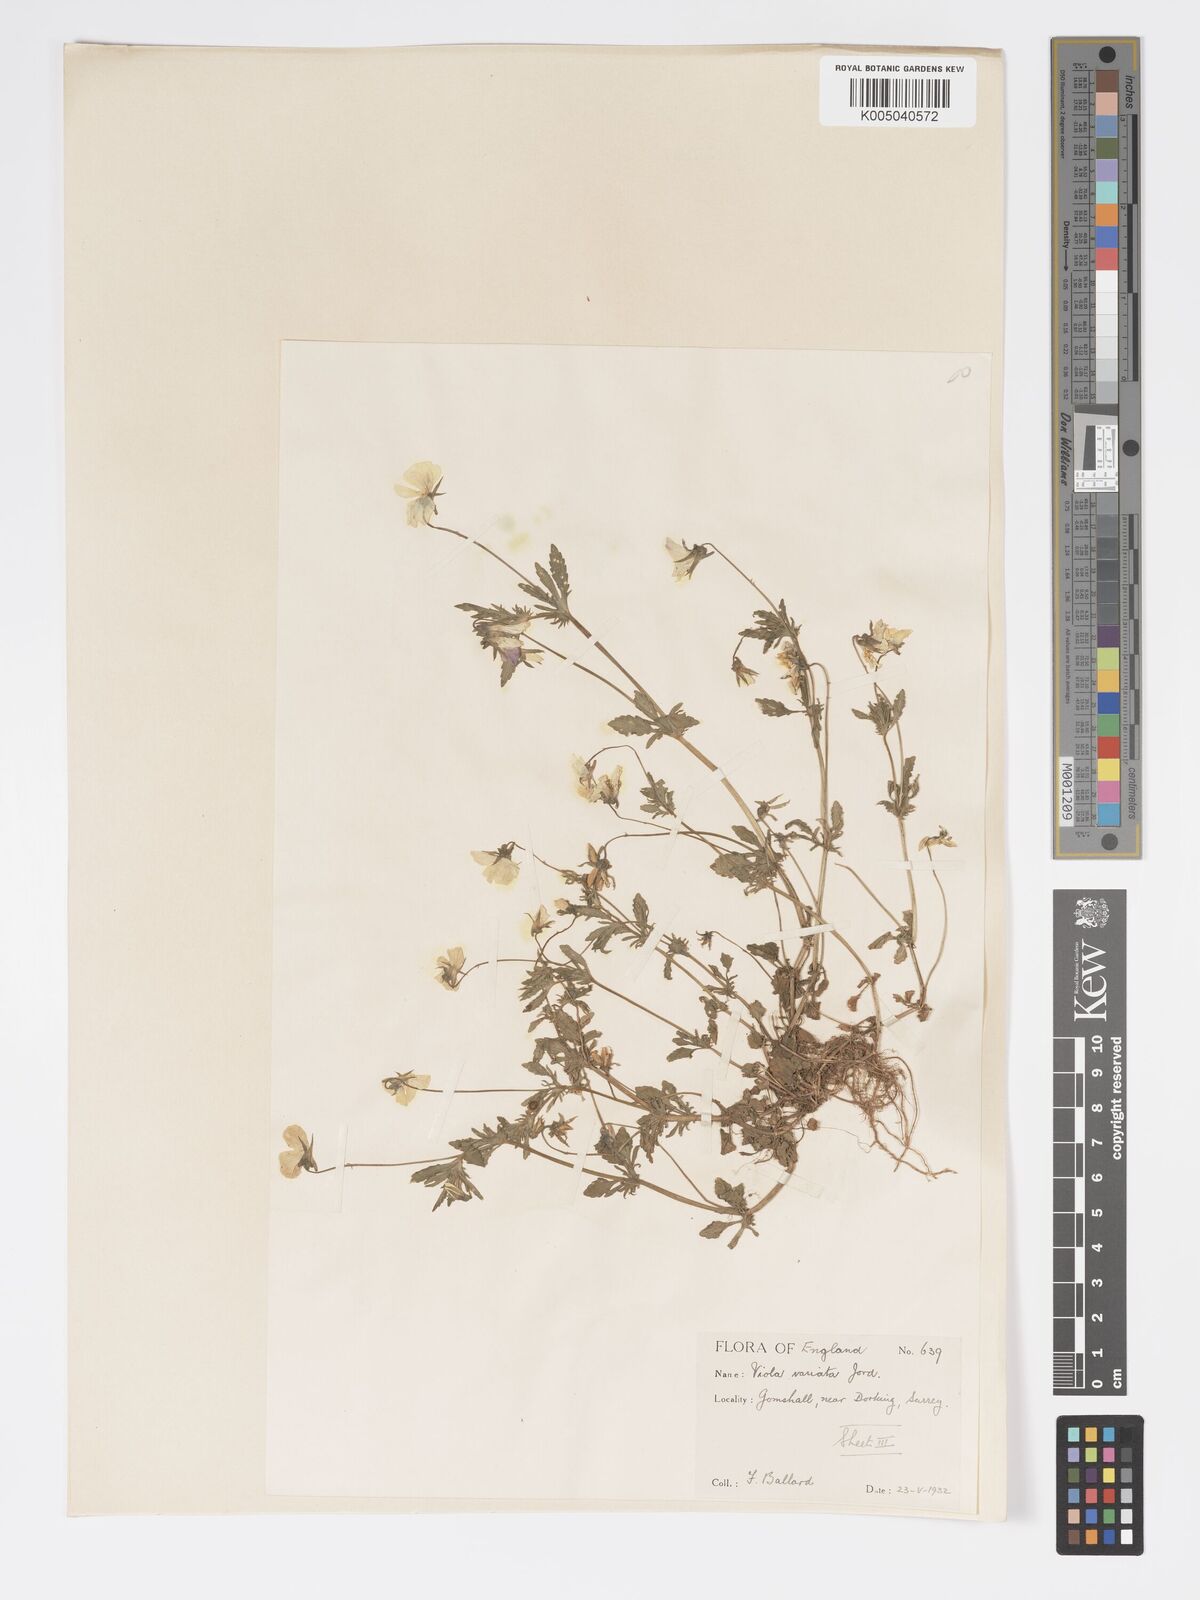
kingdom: Plantae
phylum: Tracheophyta
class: Magnoliopsida
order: Malpighiales
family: Violaceae
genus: Viola
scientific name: Viola arvensis
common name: Field pansy
